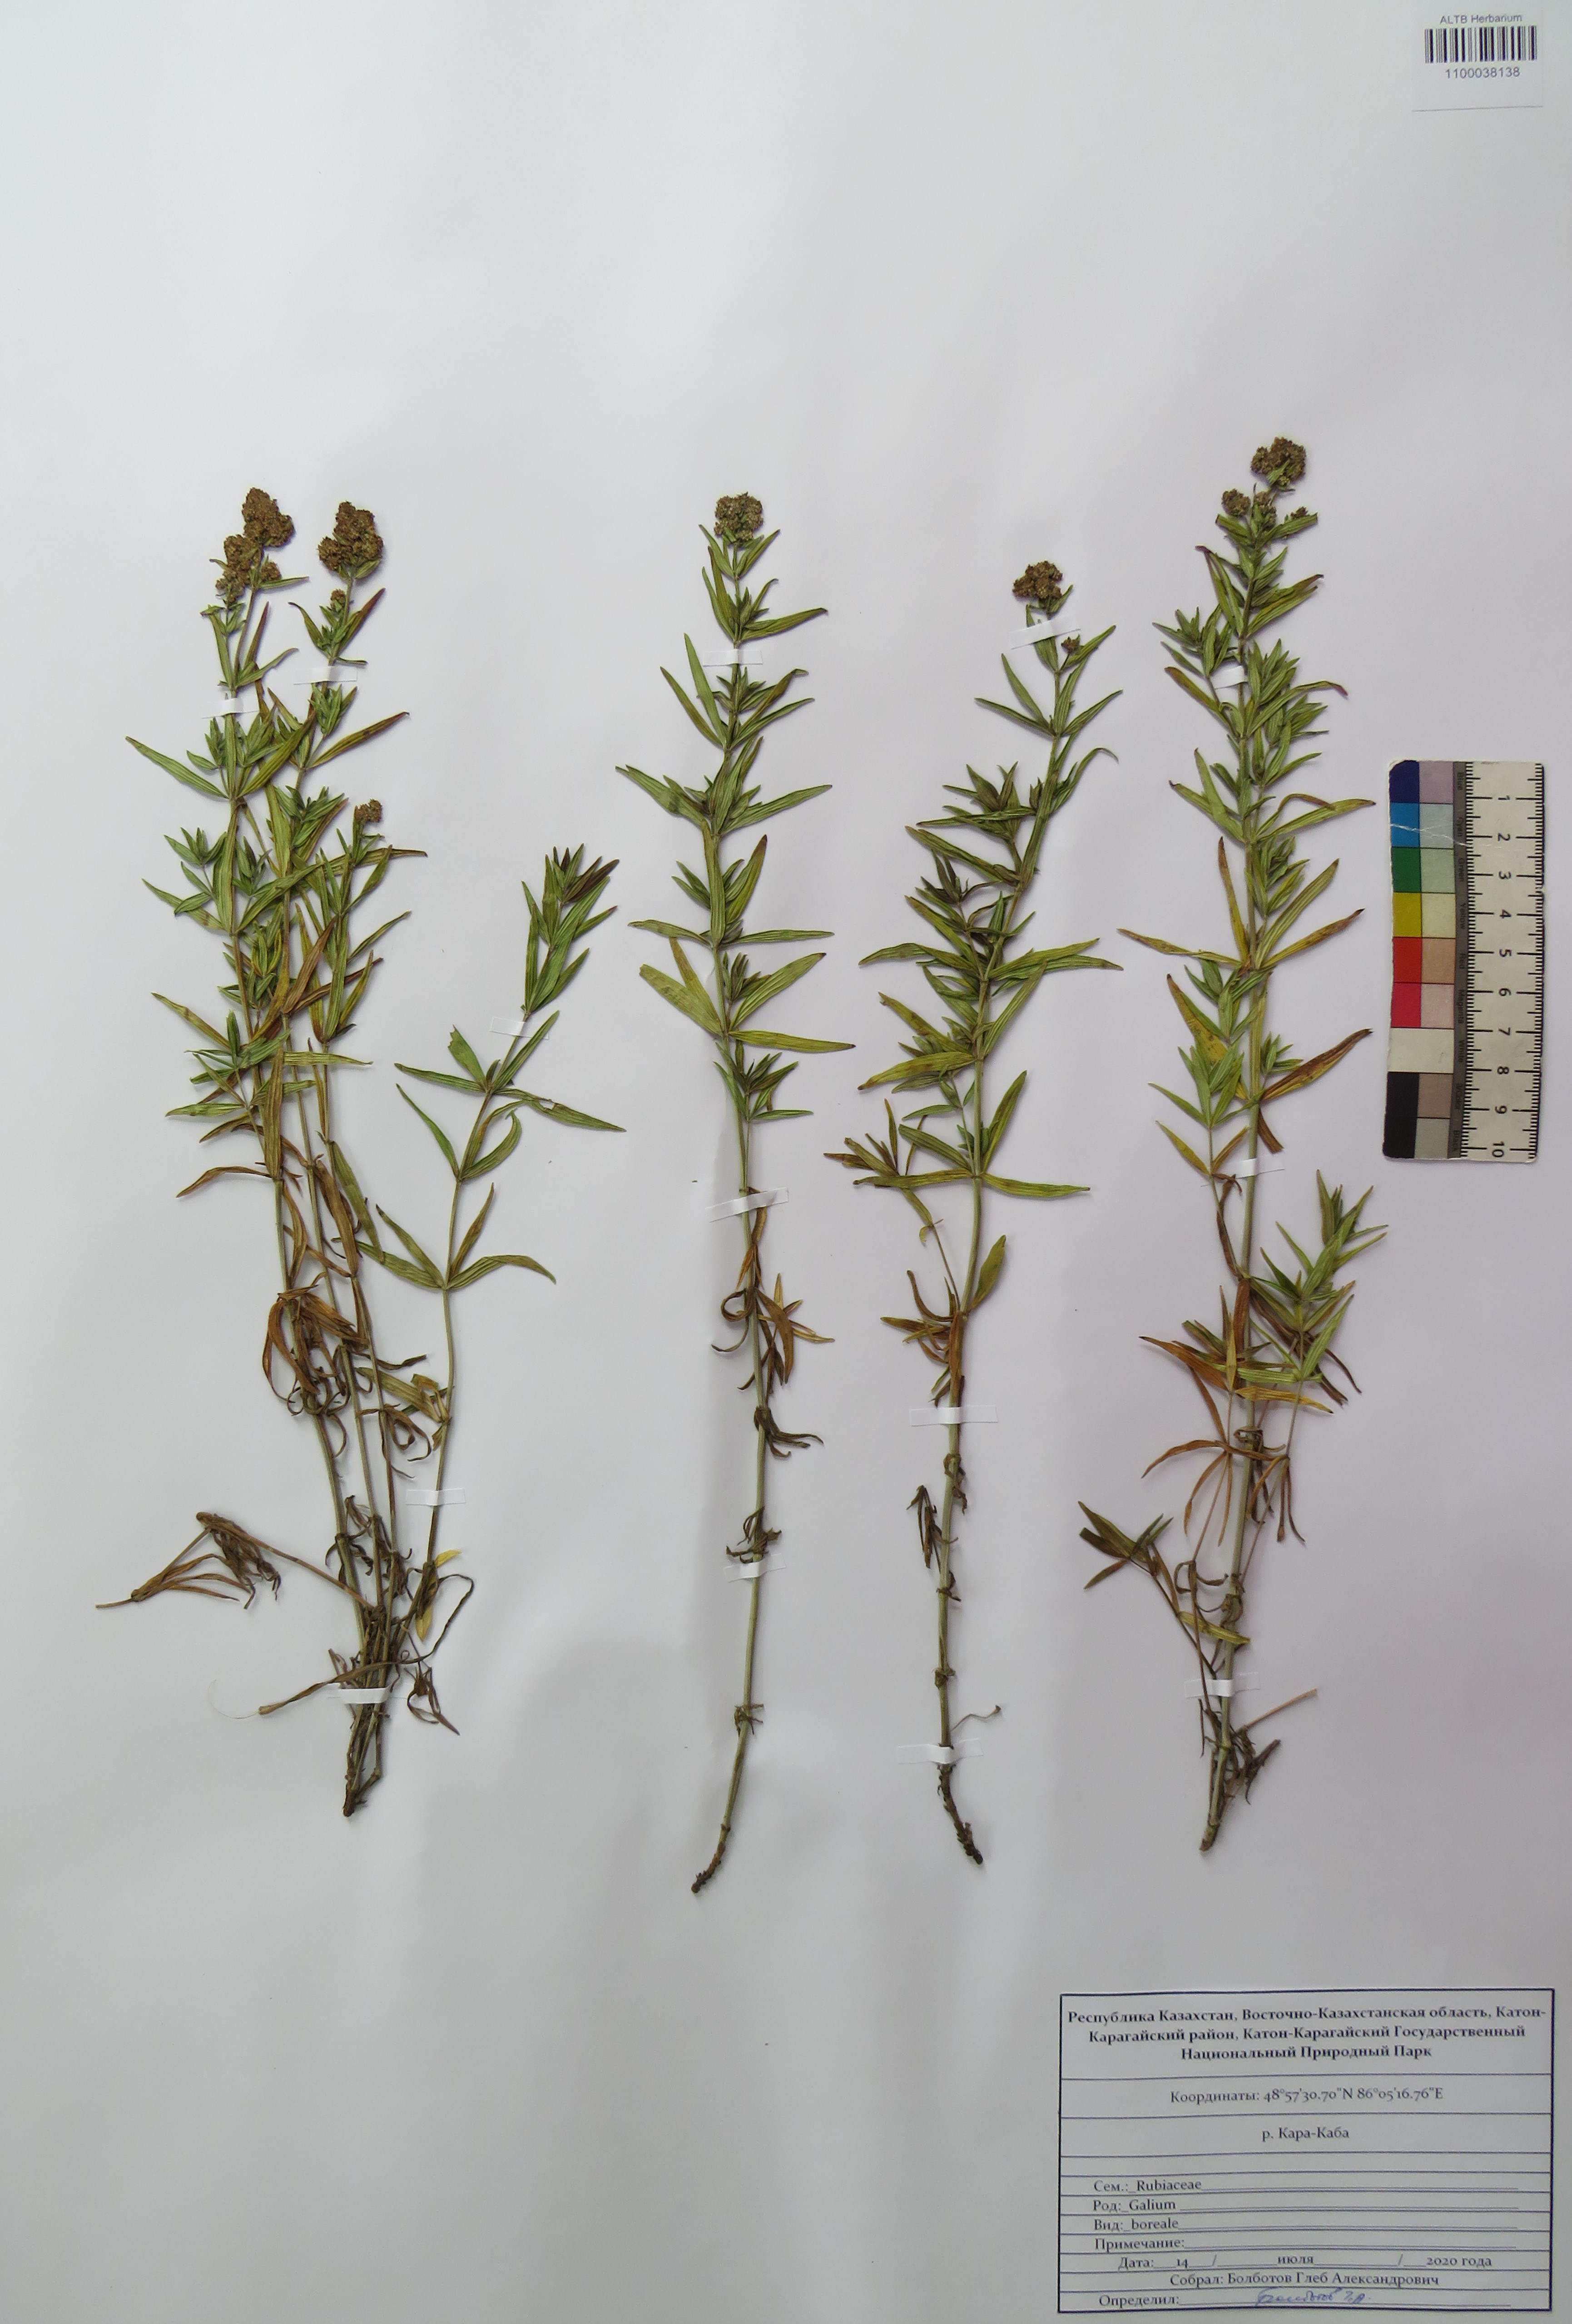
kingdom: Plantae
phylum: Tracheophyta
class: Magnoliopsida
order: Gentianales
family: Rubiaceae
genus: Galium
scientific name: Galium boreale
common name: Northern bedstraw
